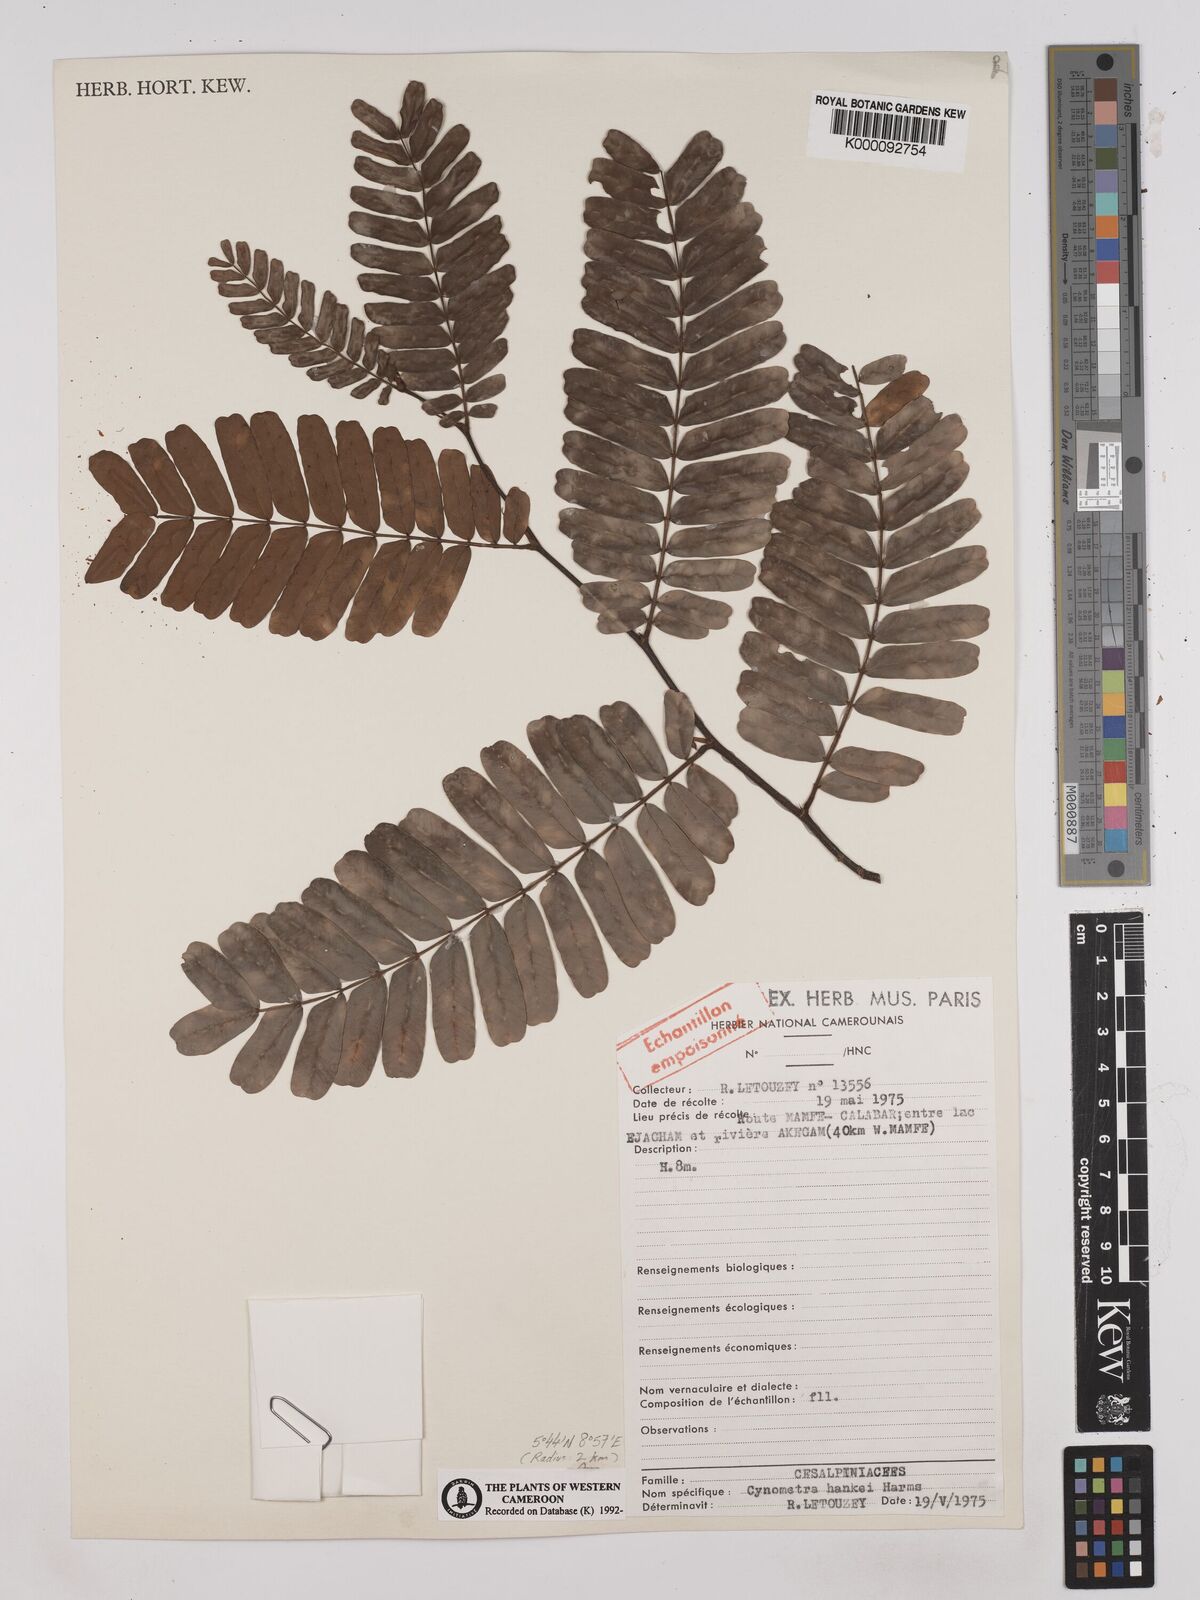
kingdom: Plantae
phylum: Tracheophyta
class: Magnoliopsida
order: Fabales
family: Fabaceae
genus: Cynometra
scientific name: Cynometra hankei
